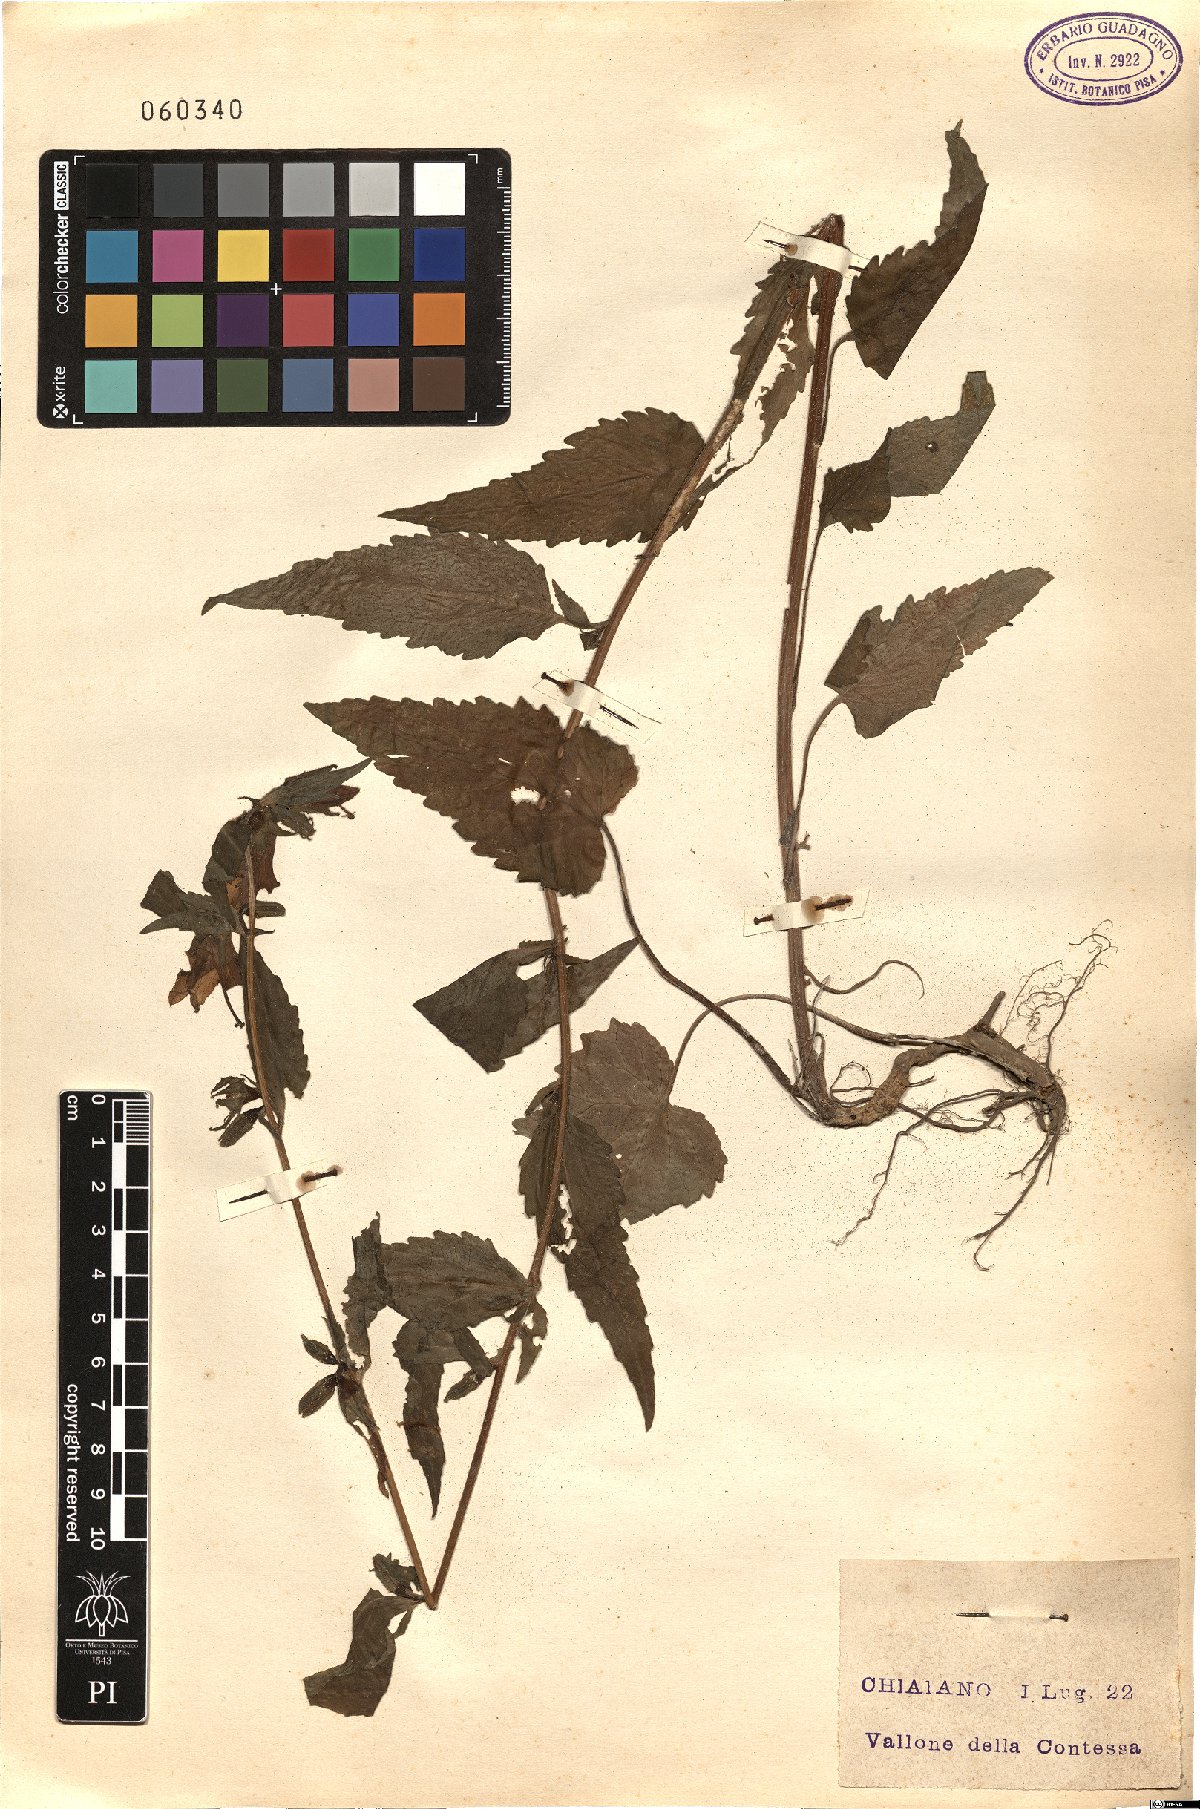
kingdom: Plantae
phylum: Tracheophyta
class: Magnoliopsida
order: Asterales
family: Campanulaceae
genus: Campanula
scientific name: Campanula trachelium
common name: Nettle-leaved bellflower
